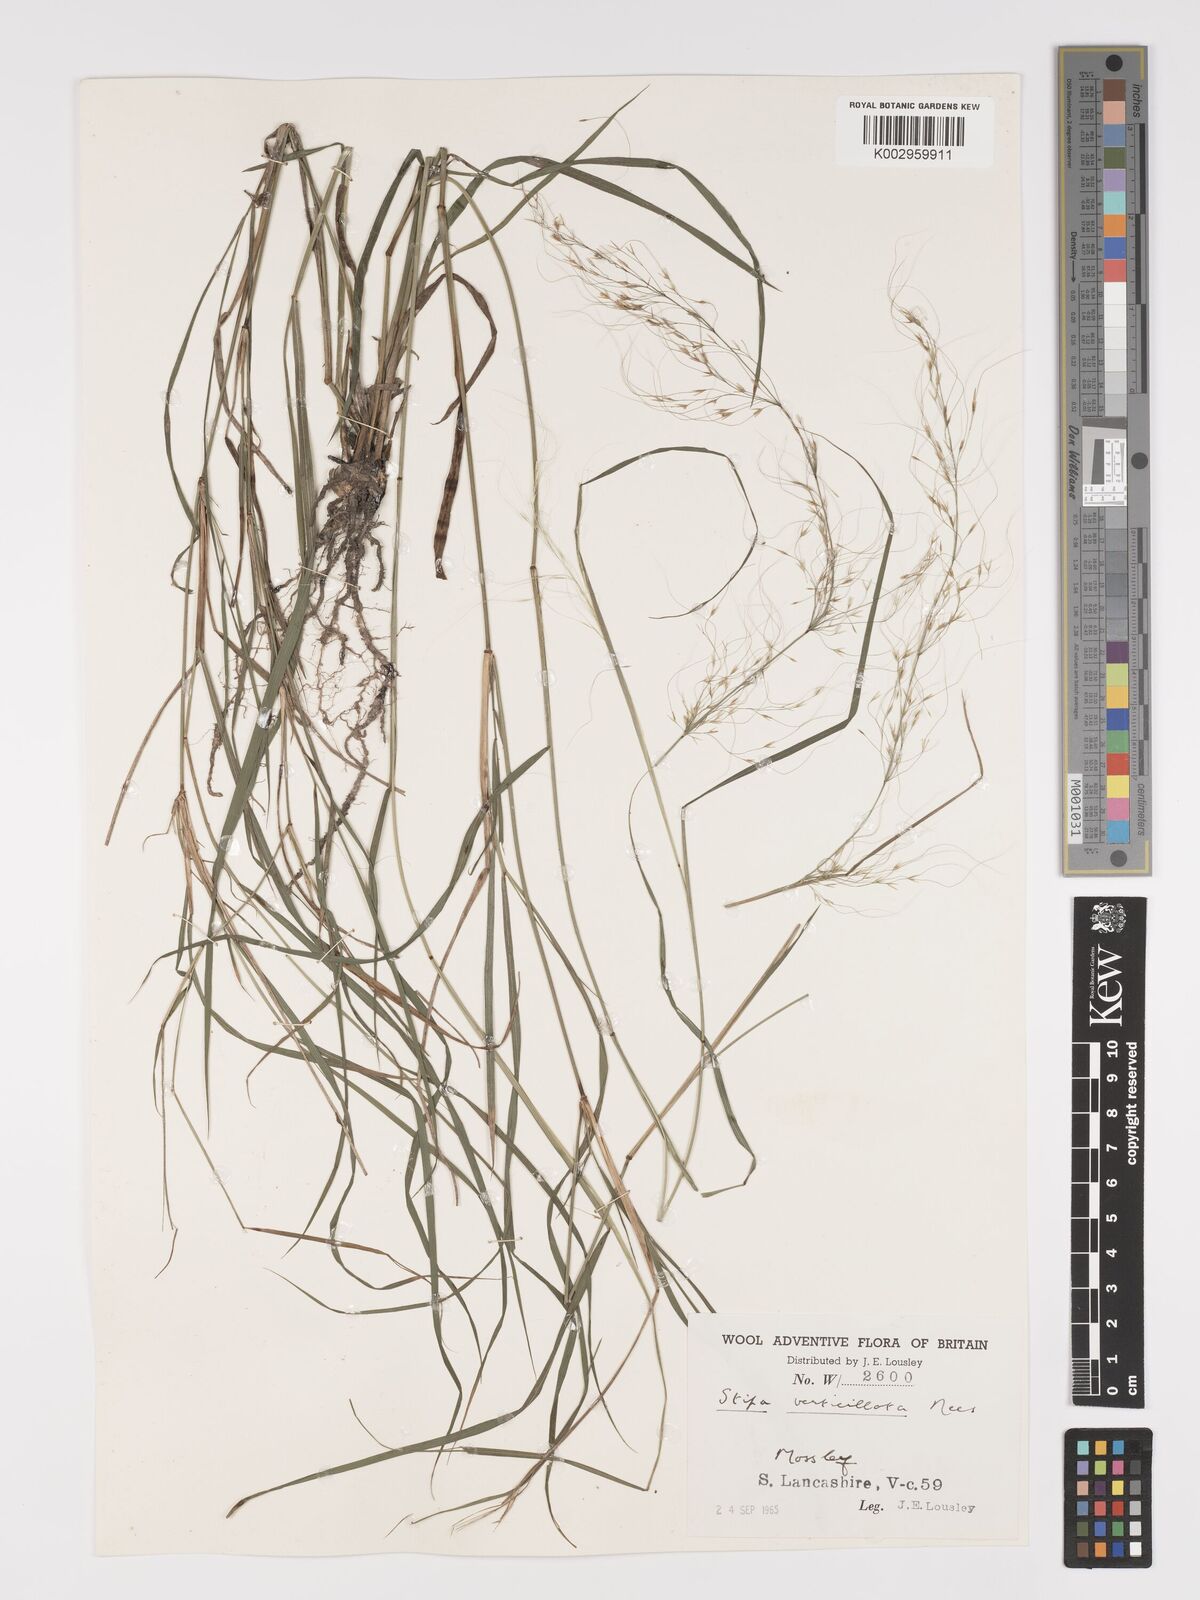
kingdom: Plantae
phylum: Tracheophyta
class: Liliopsida
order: Poales
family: Poaceae
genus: Austrostipa
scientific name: Austrostipa verticillata
